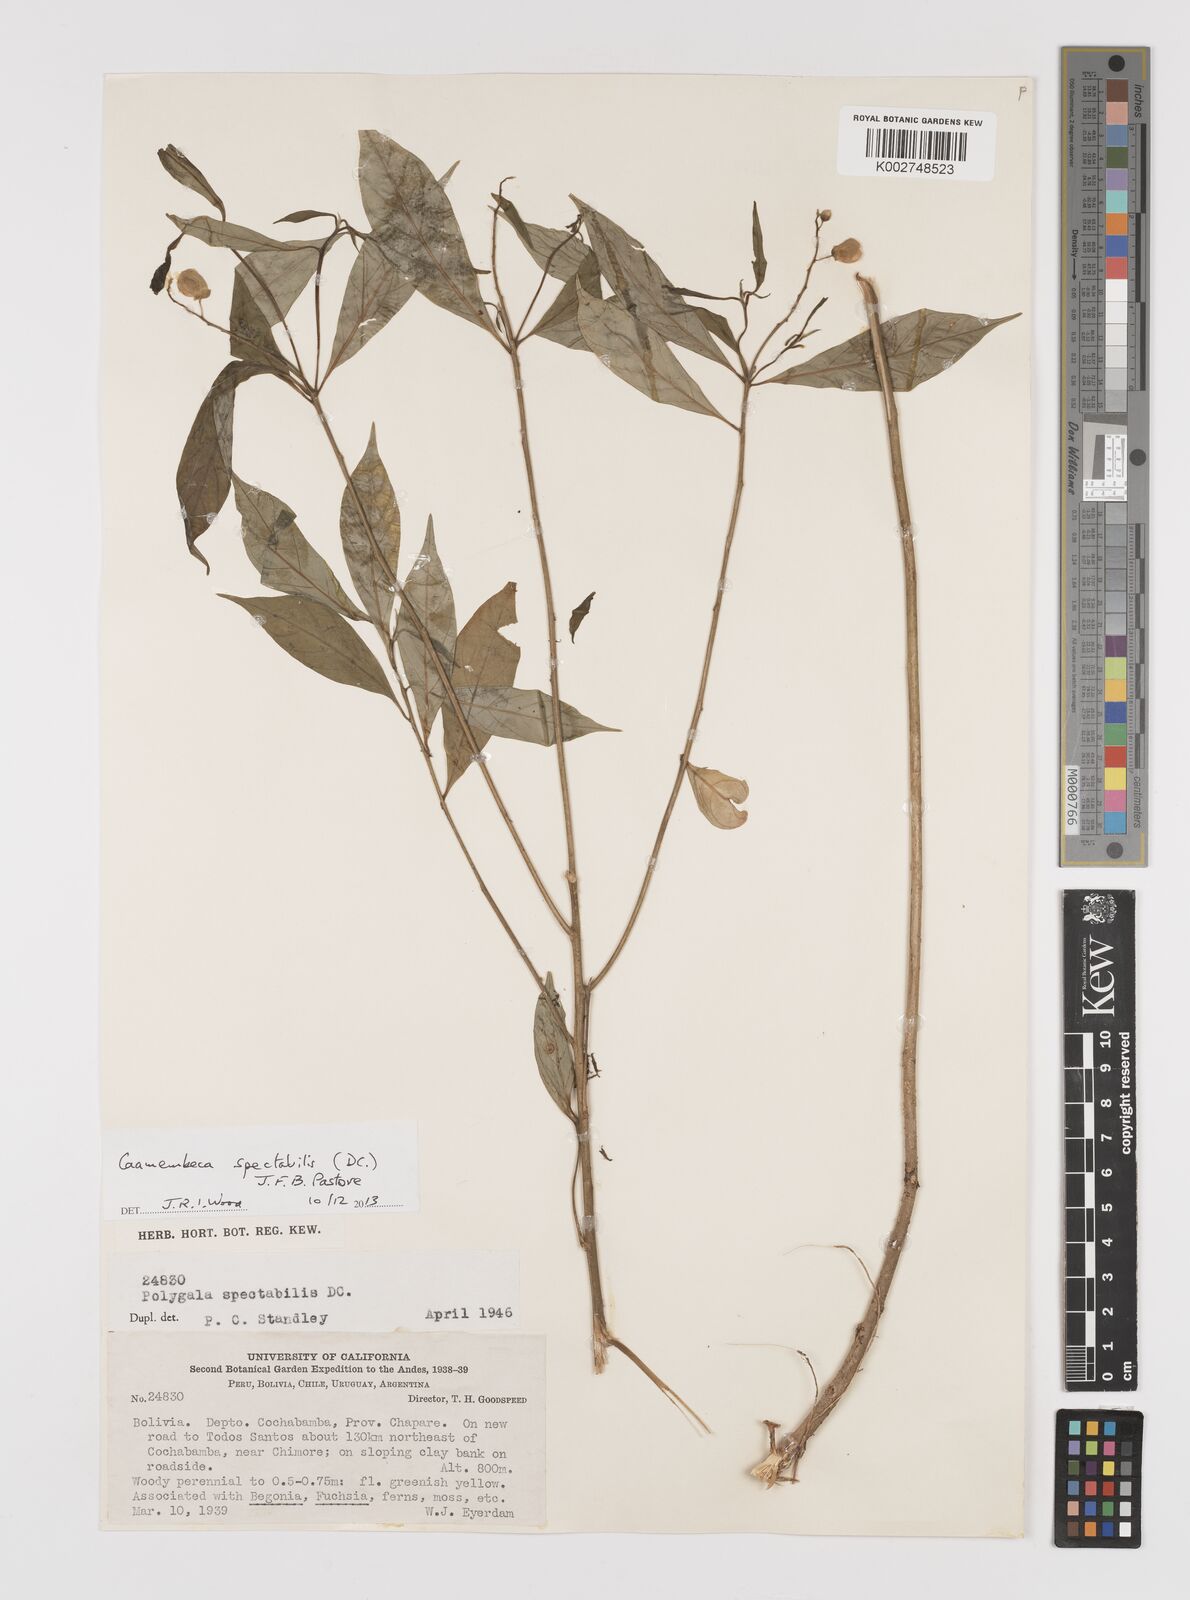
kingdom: Plantae
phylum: Tracheophyta
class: Magnoliopsida
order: Fabales
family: Polygalaceae
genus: Caamembeca
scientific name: Caamembeca spectabilis
